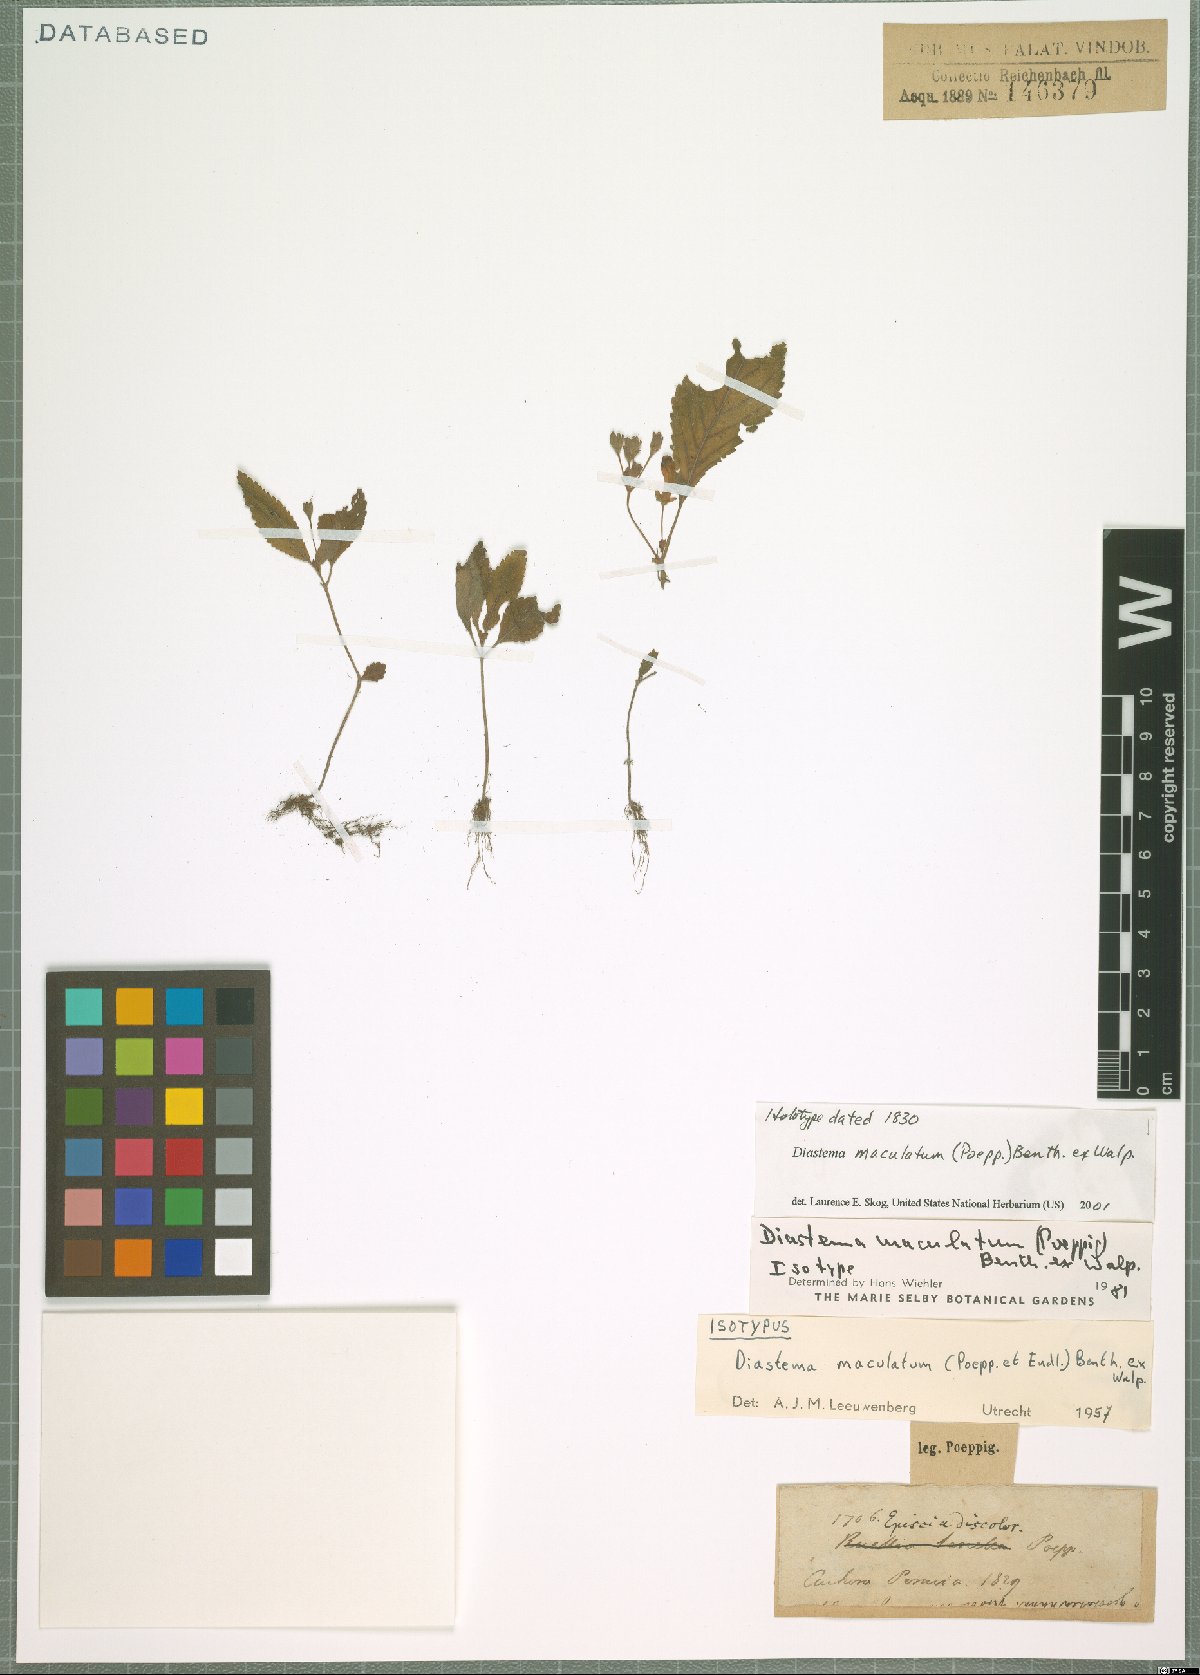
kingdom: Plantae
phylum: Tracheophyta
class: Magnoliopsida
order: Lamiales
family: Gesneriaceae
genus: Diastema
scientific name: Diastema maculatum
